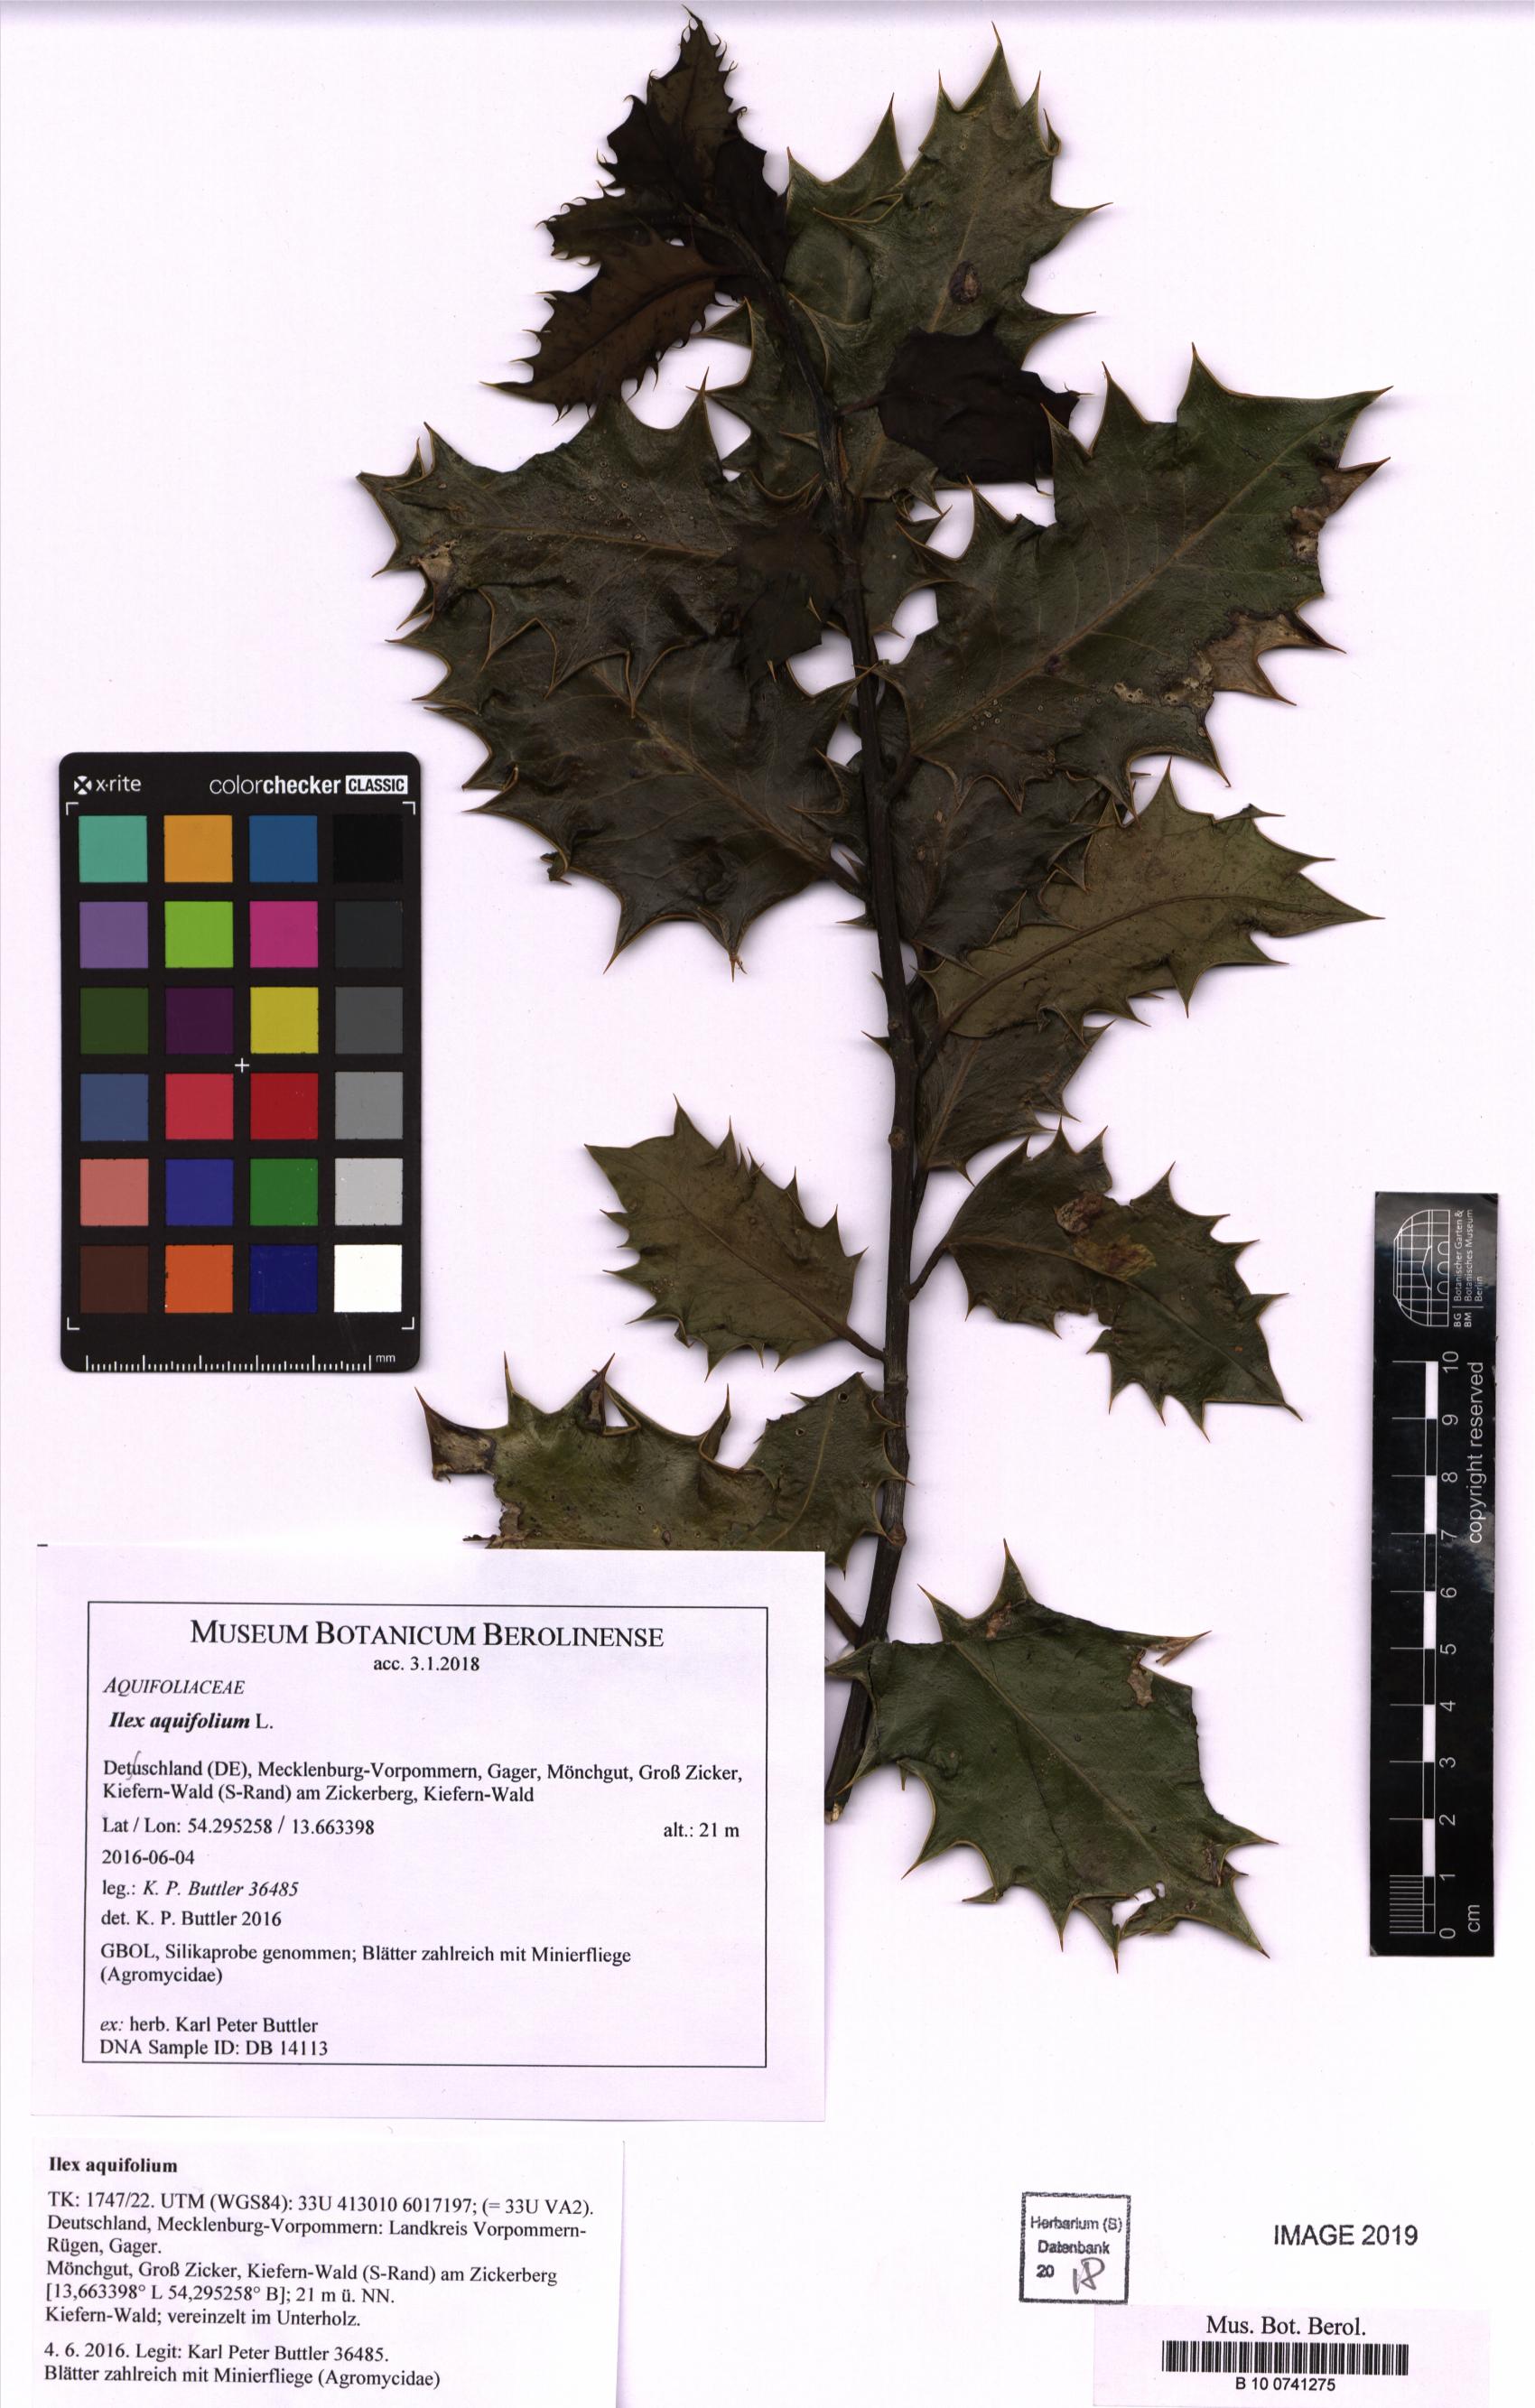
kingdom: Plantae
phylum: Tracheophyta
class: Magnoliopsida
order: Aquifoliales
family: Aquifoliaceae
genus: Ilex
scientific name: Ilex aquifolium
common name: English holly
